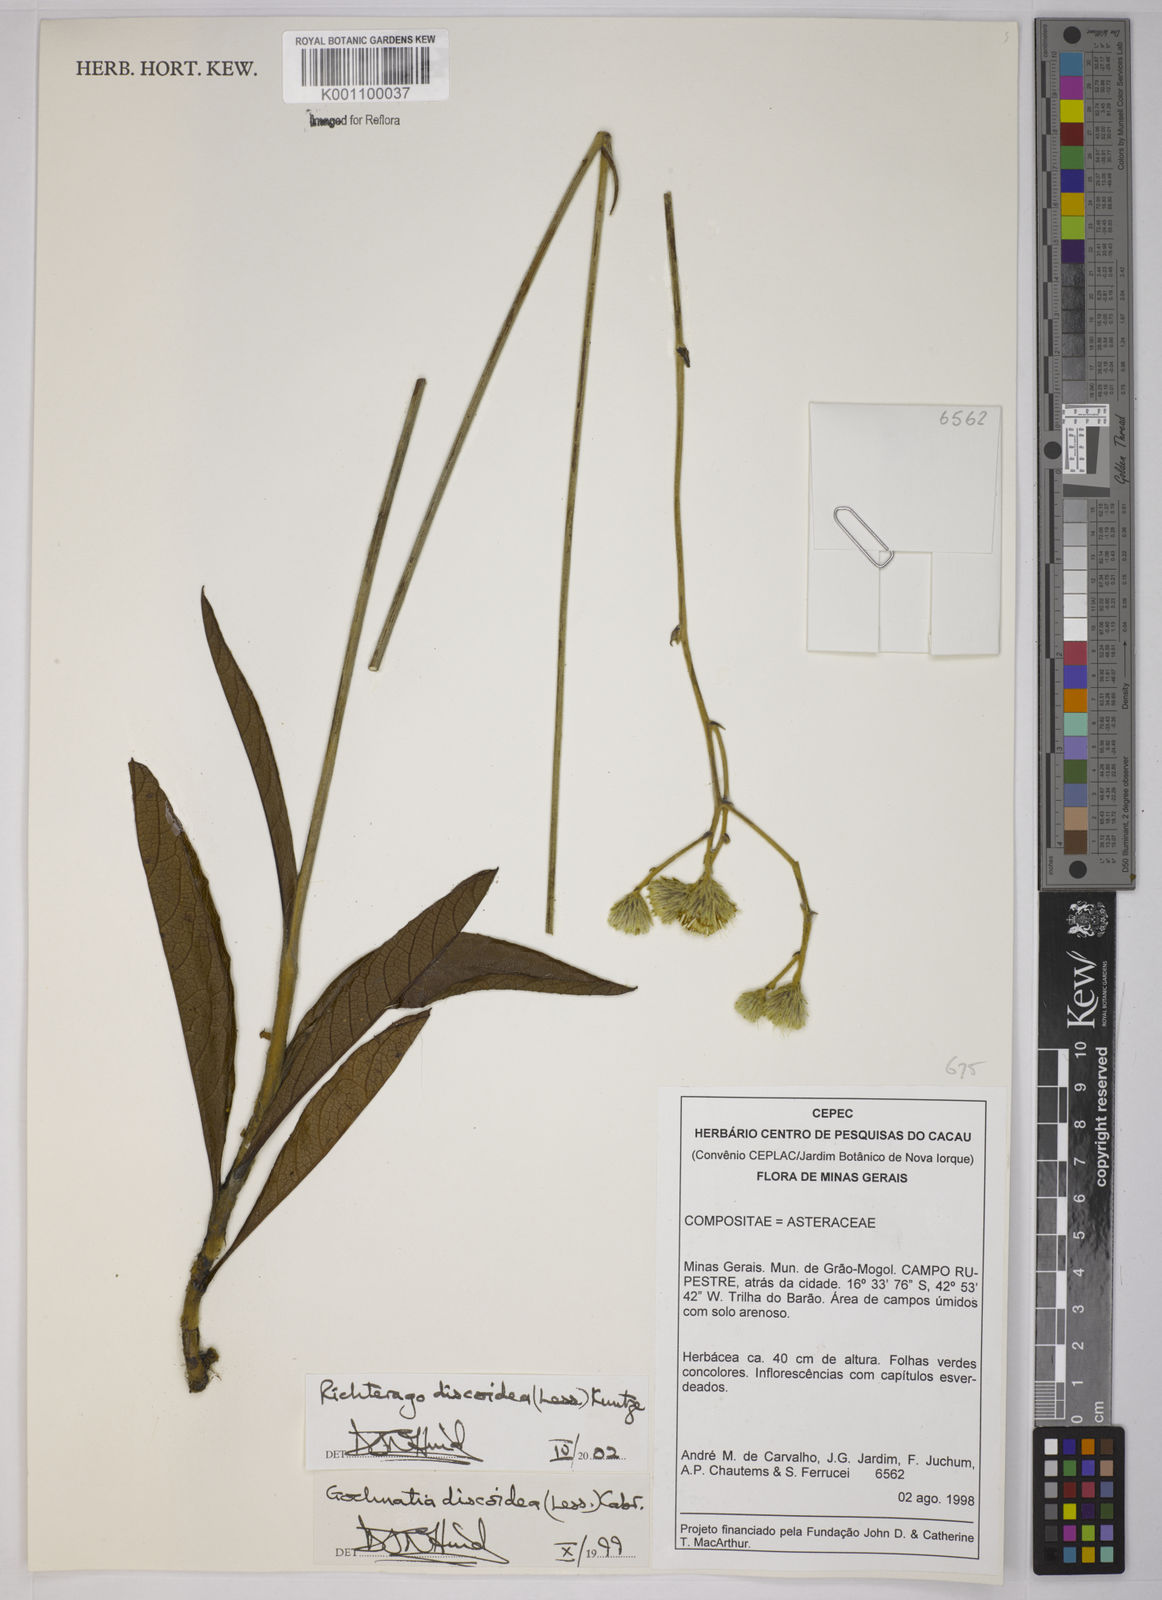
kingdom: Plantae
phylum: Tracheophyta
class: Magnoliopsida
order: Asterales
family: Asteraceae
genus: Richterago
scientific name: Richterago discoidea
